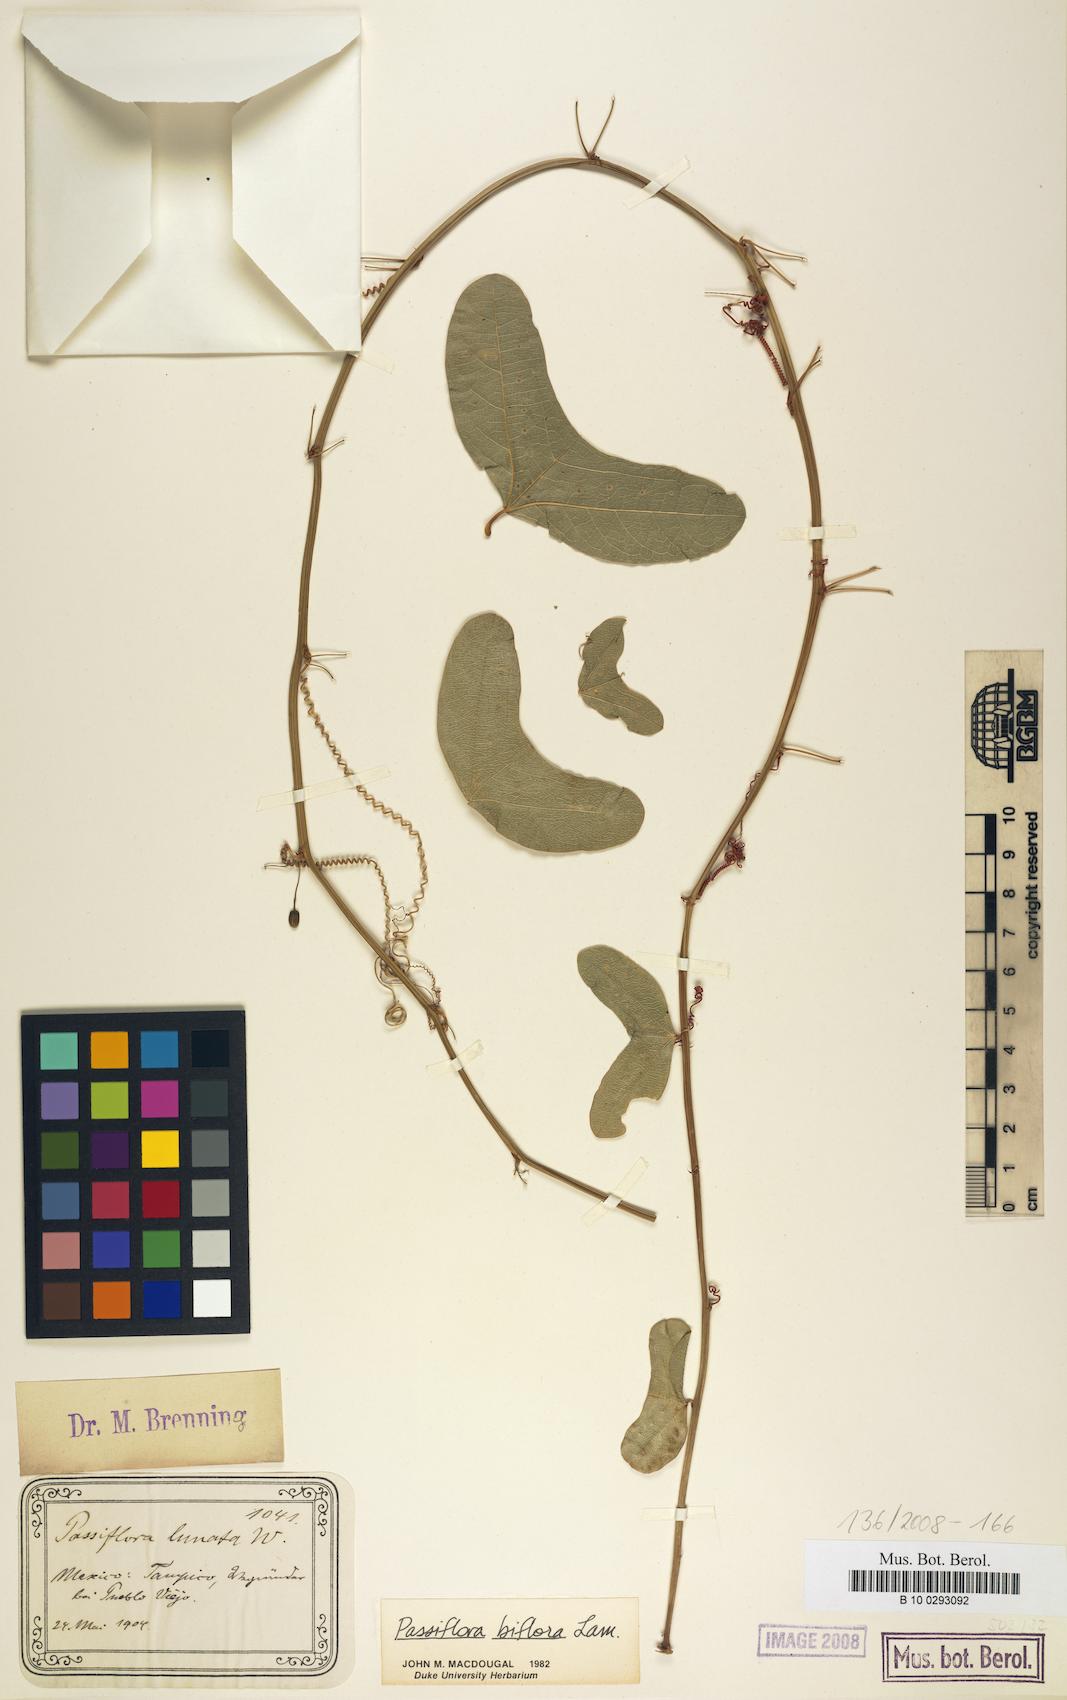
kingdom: Plantae
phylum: Tracheophyta
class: Magnoliopsida
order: Malpighiales
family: Passifloraceae
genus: Passiflora
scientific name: Passiflora biflora
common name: Twoflower passionflower
